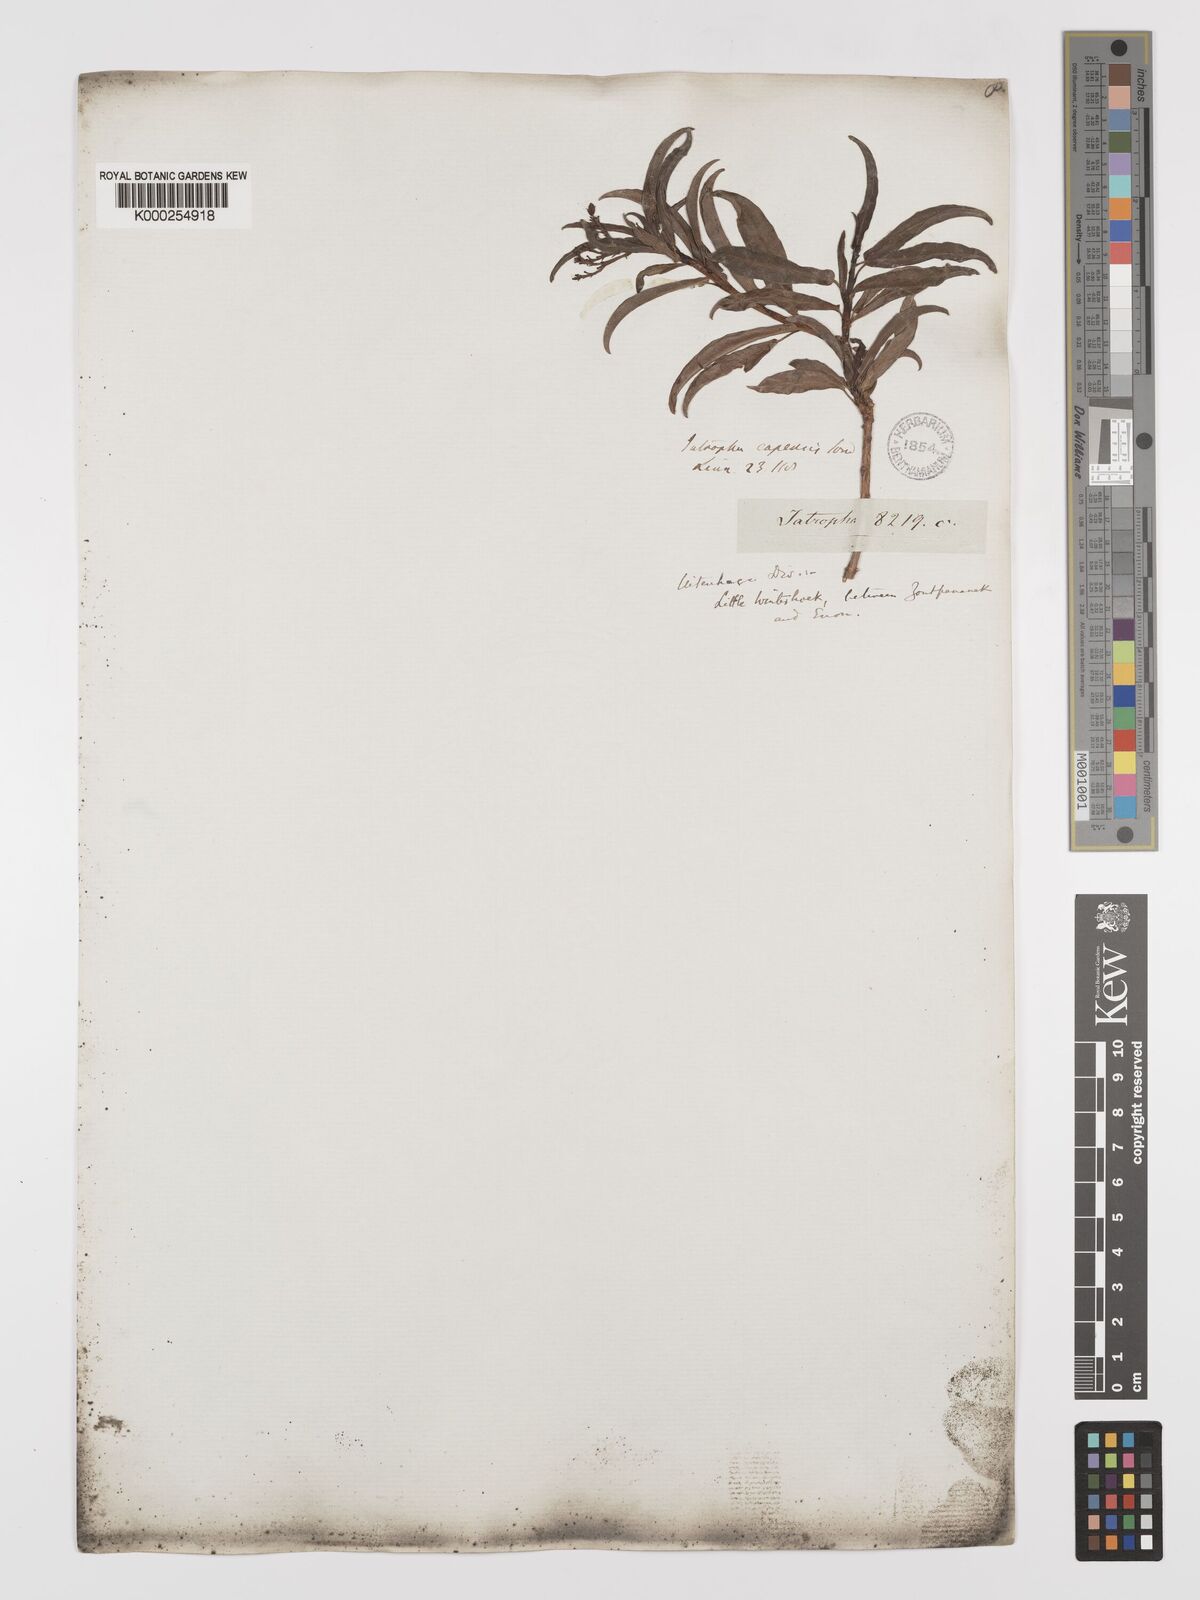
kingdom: Plantae
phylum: Tracheophyta
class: Magnoliopsida
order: Malpighiales
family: Euphorbiaceae
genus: Jatropha
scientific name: Jatropha capensis
